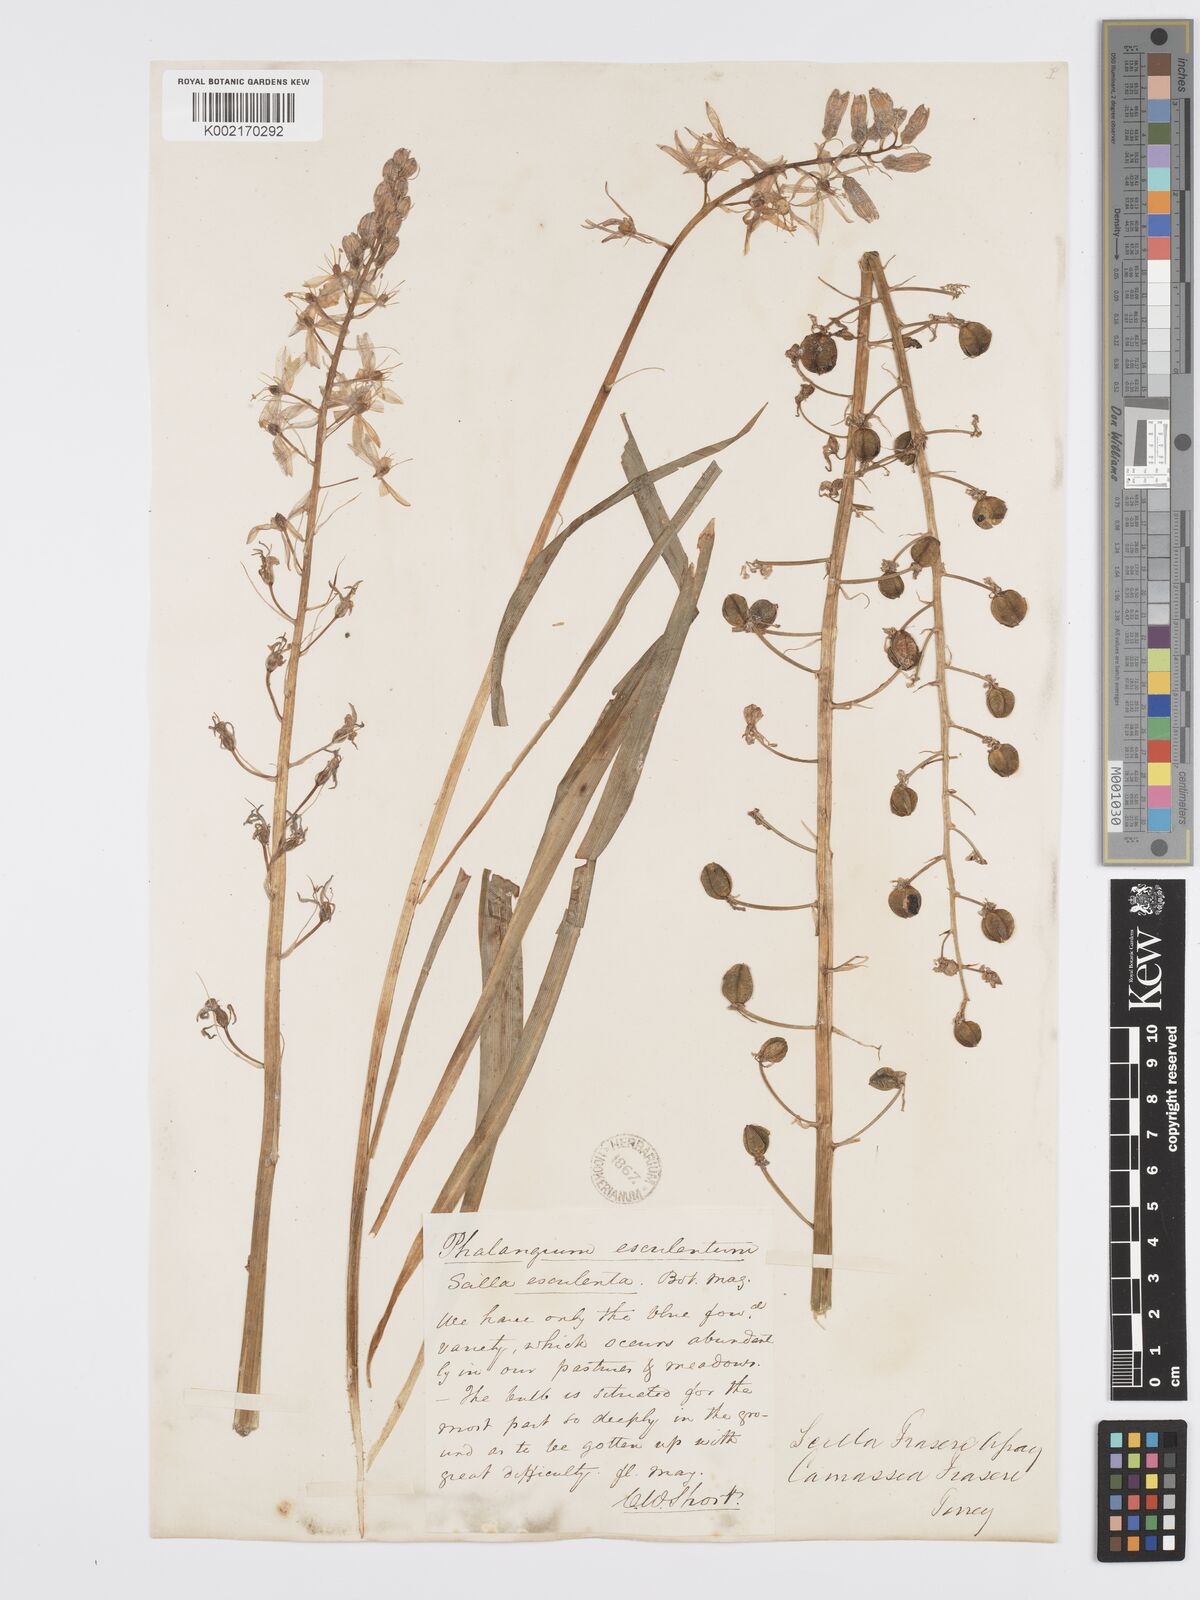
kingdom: Plantae
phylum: Tracheophyta
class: Liliopsida
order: Asparagales
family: Asparagaceae
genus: Camassia
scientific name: Camassia scilloides
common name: Wild hyacinth
